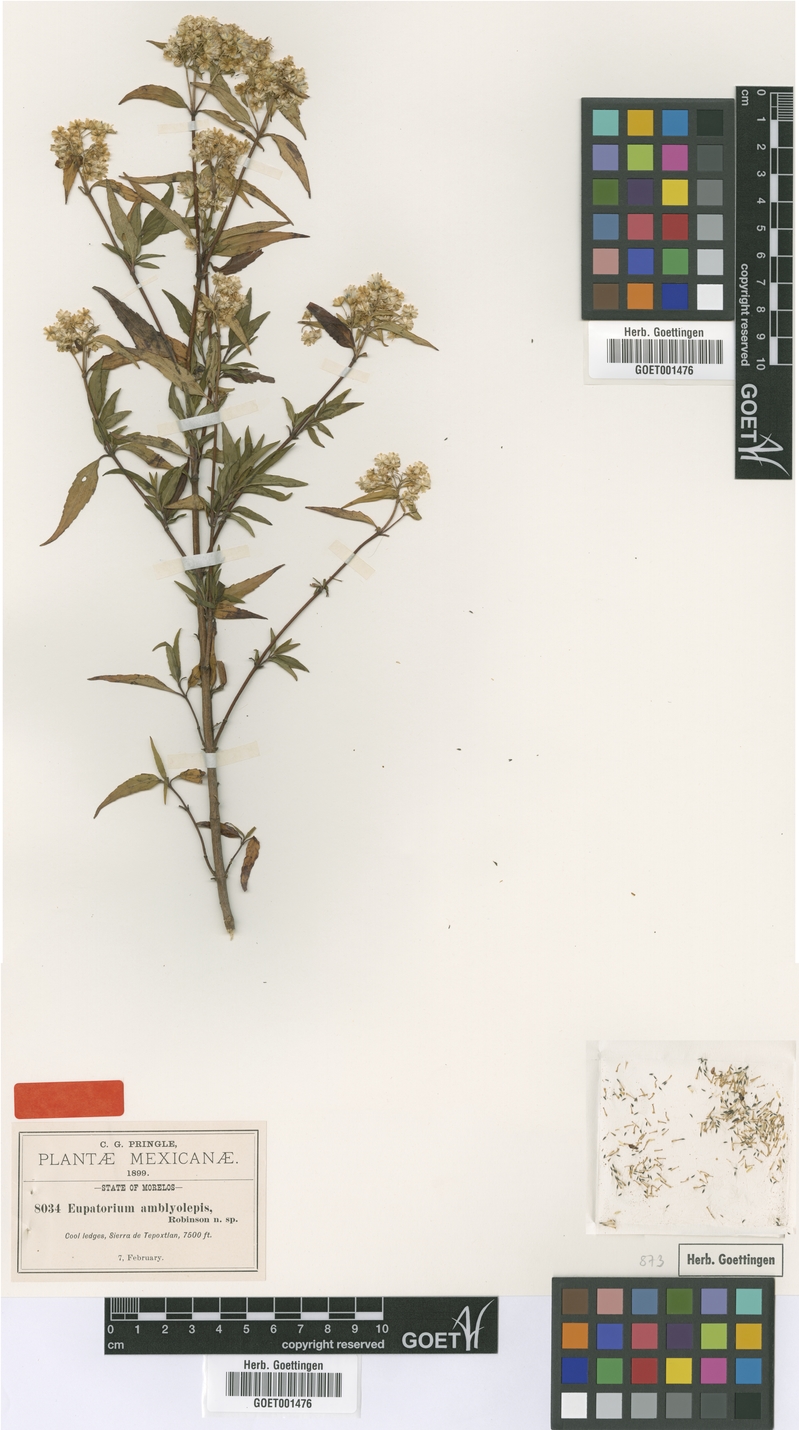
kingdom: Plantae
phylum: Tracheophyta
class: Magnoliopsida
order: Asterales
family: Asteraceae
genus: Ageratina
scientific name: Ageratina amblyolepis
